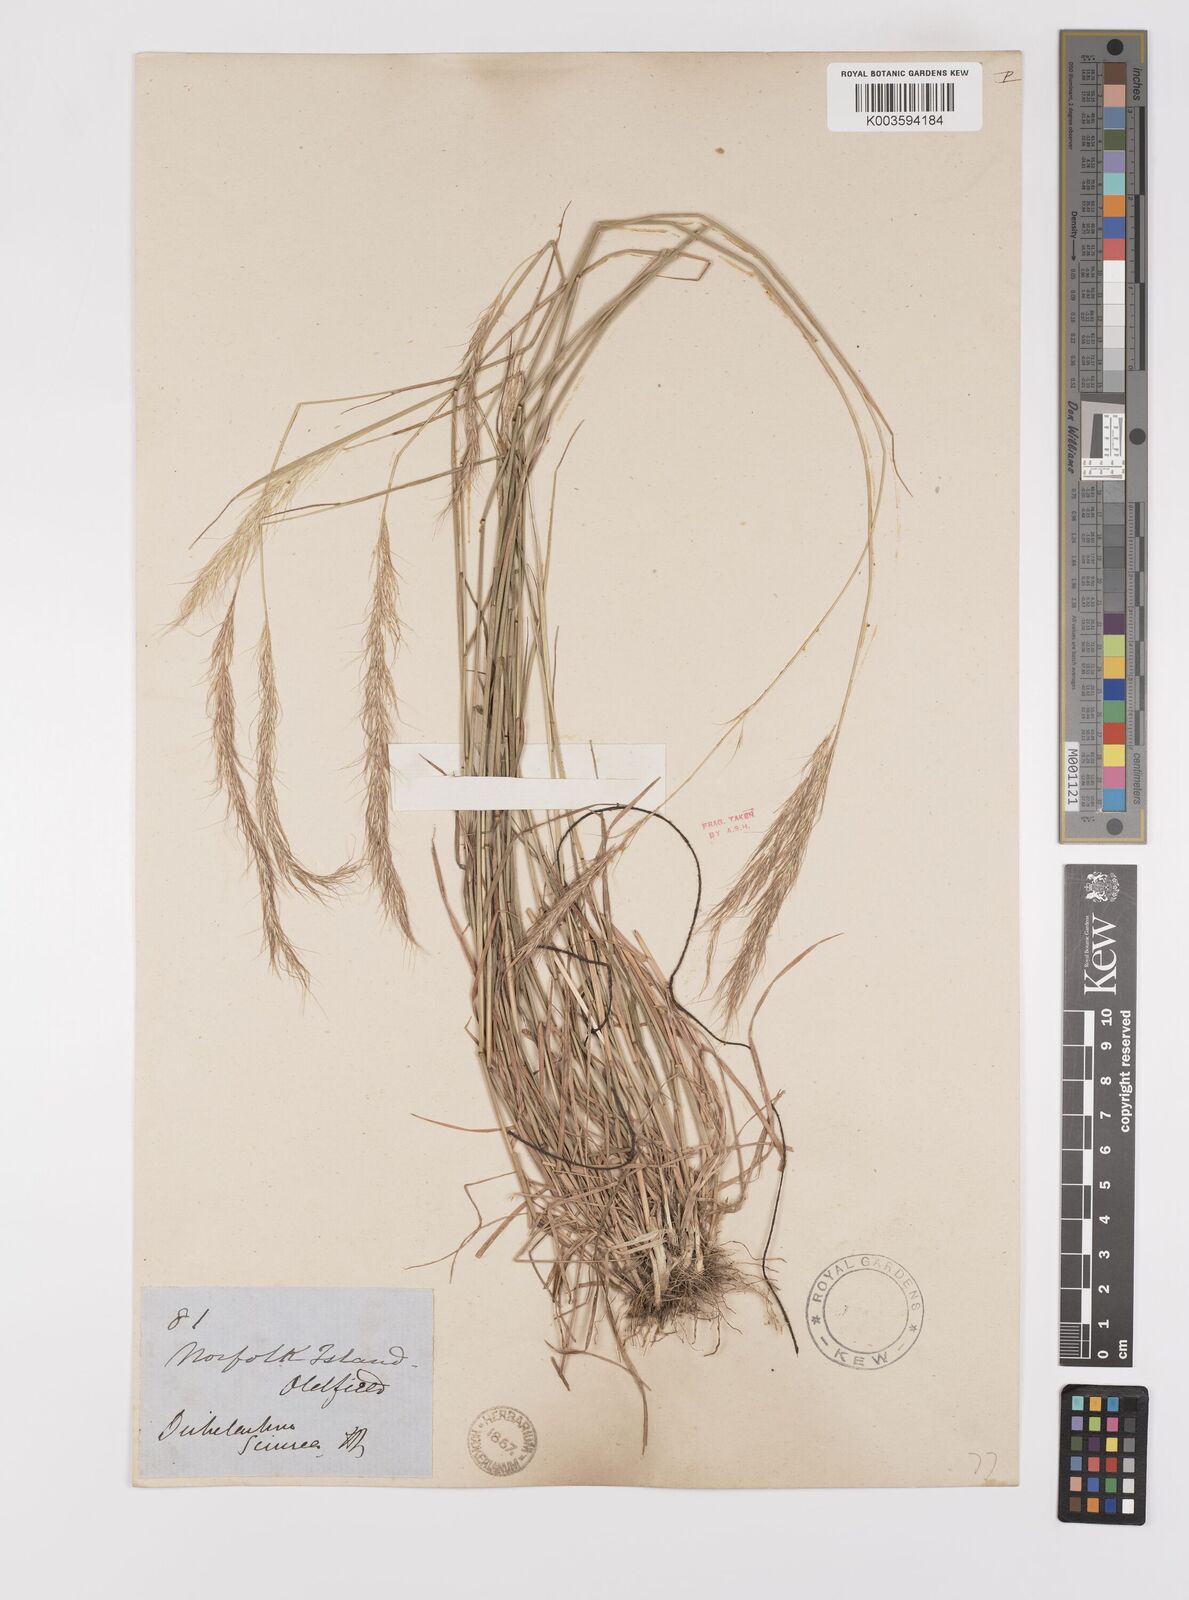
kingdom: Plantae
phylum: Tracheophyta
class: Liliopsida
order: Poales
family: Poaceae
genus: Dichelachne
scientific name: Dichelachne micrantha
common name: Plumegrass
